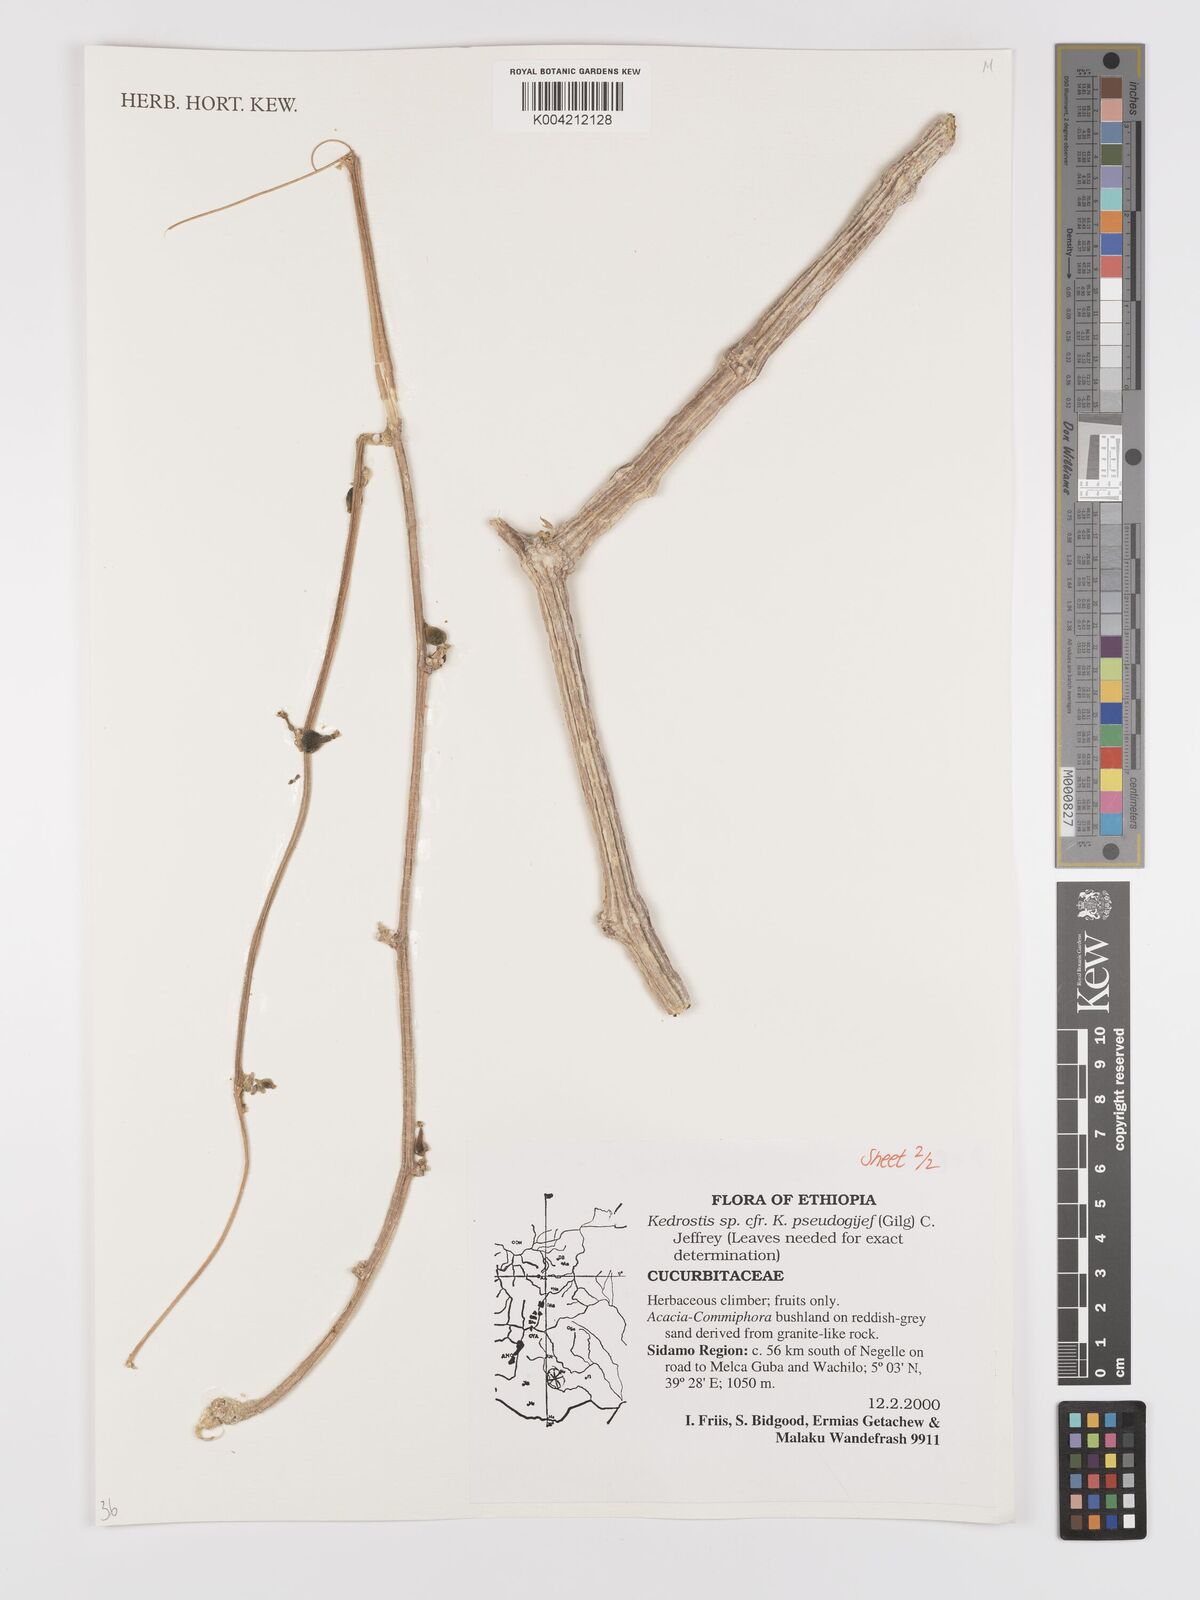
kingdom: Plantae
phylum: Tracheophyta
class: Magnoliopsida
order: Cucurbitales
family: Cucurbitaceae
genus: Kedrostis
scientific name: Kedrostis pseudogijef
